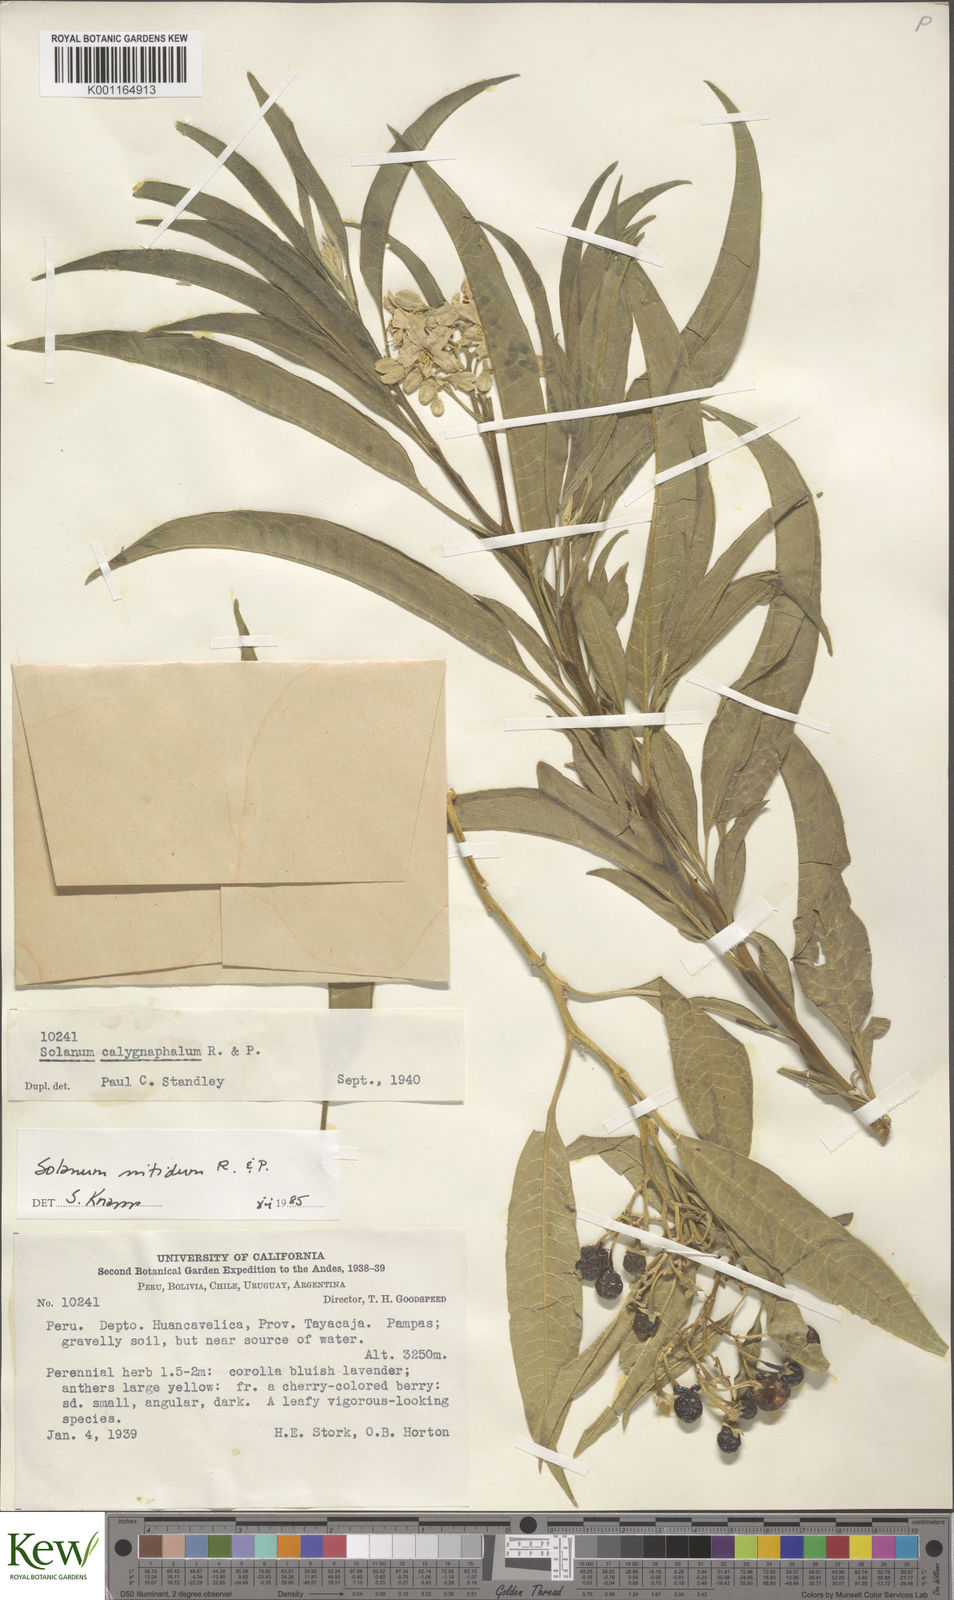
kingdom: Plantae
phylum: Tracheophyta
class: Magnoliopsida
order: Solanales
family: Solanaceae
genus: Solanum
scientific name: Solanum nitidum
